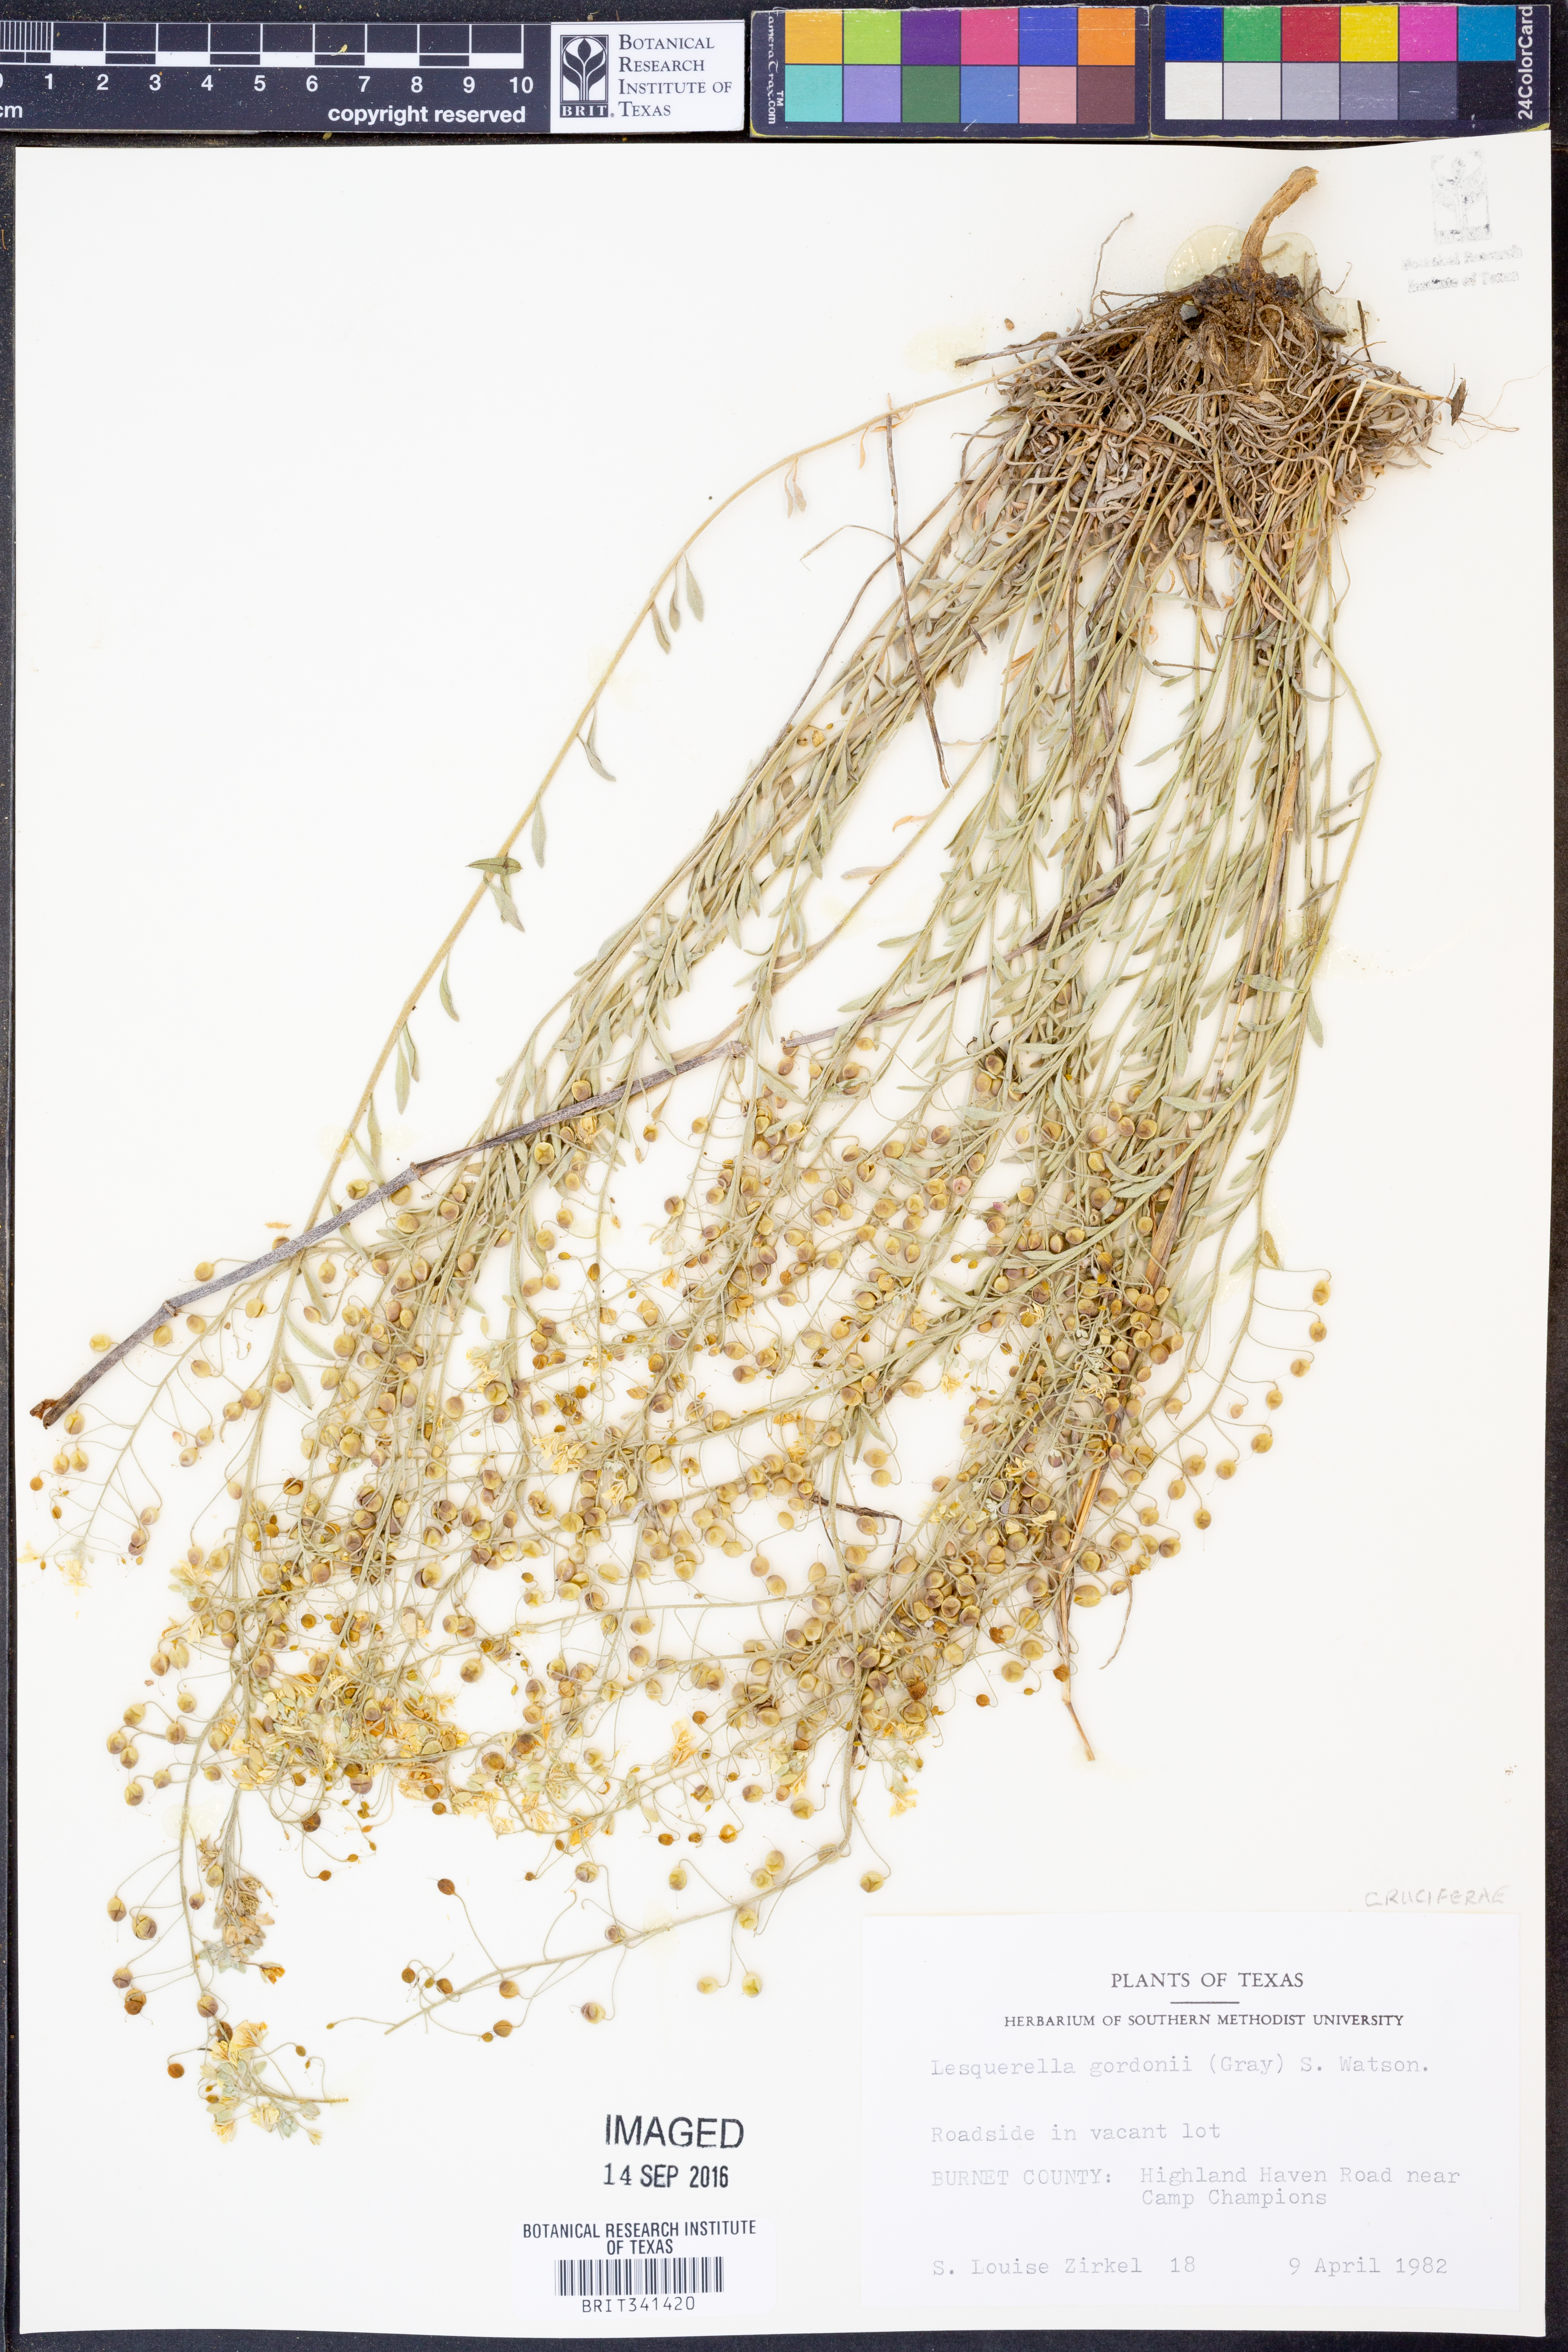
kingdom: Plantae
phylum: Tracheophyta
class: Magnoliopsida
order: Brassicales
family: Brassicaceae
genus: Physaria
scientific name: Physaria gordonii
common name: Gordon's bladderpod
